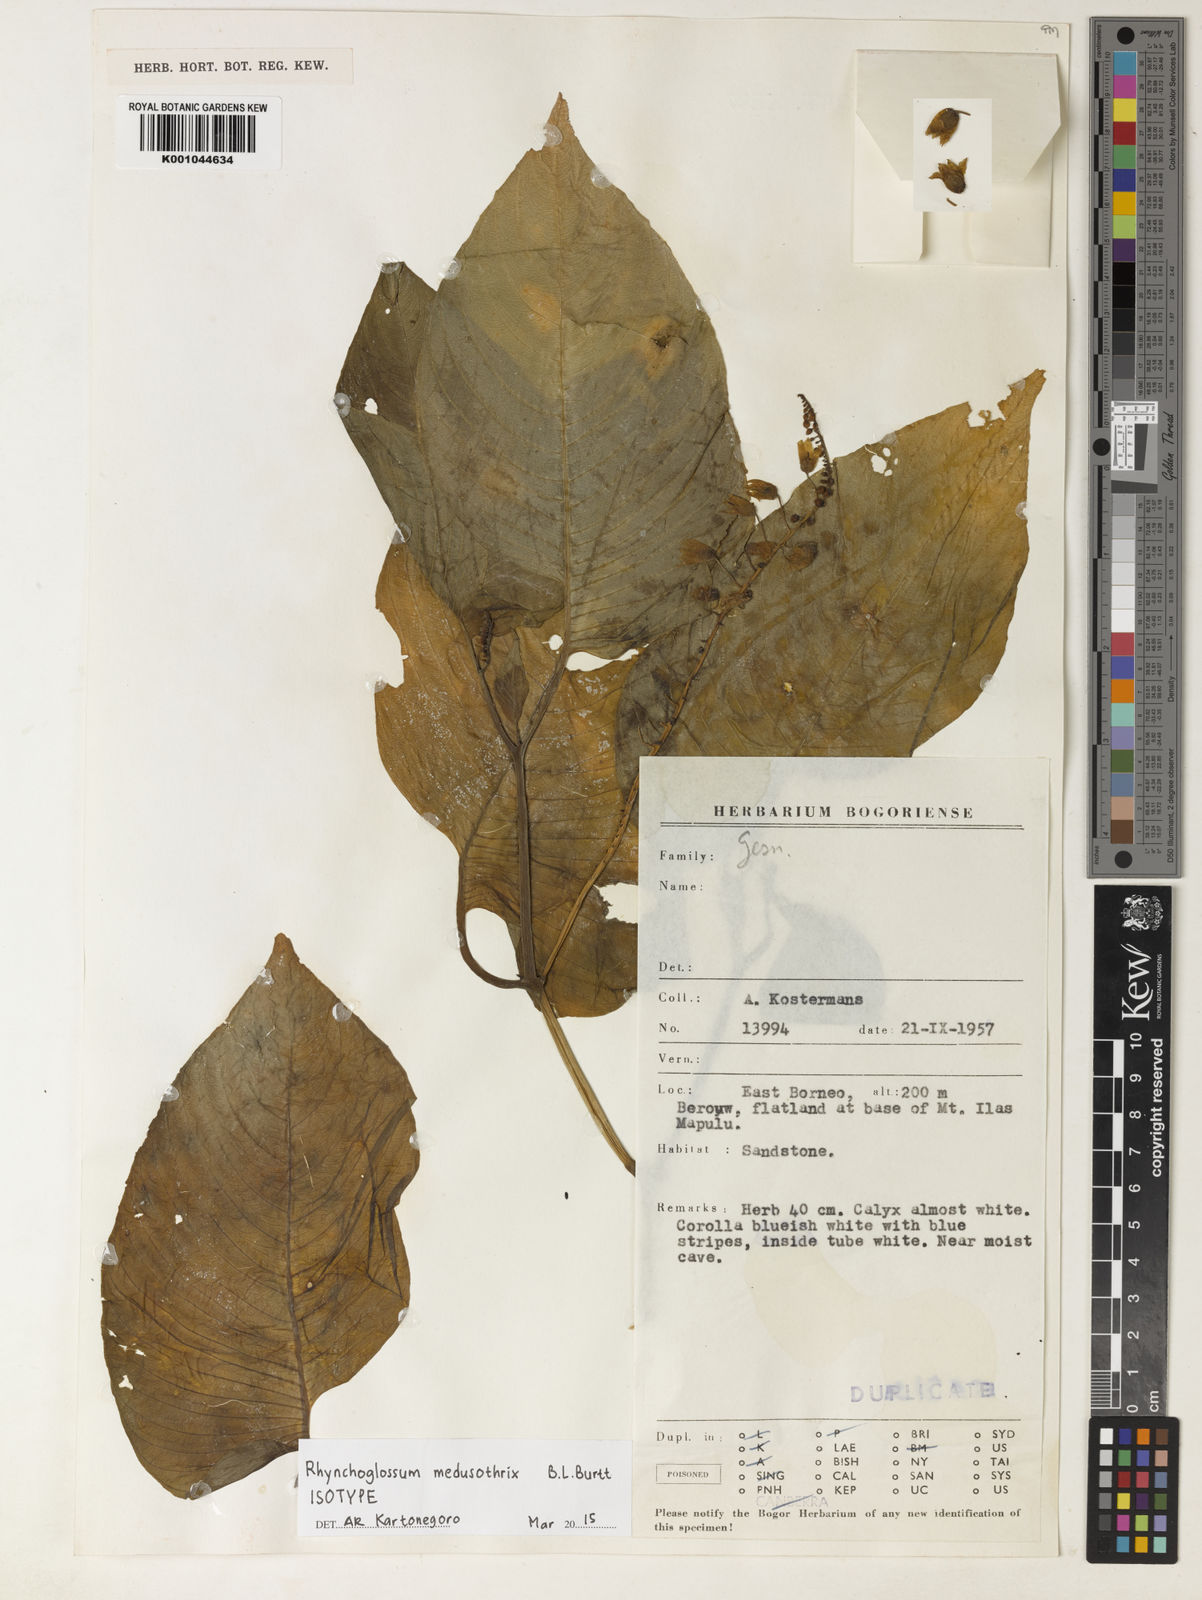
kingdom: Plantae
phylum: Tracheophyta
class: Magnoliopsida
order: Lamiales
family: Gesneriaceae
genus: Rhynchoglossum
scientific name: Rhynchoglossum borneense
